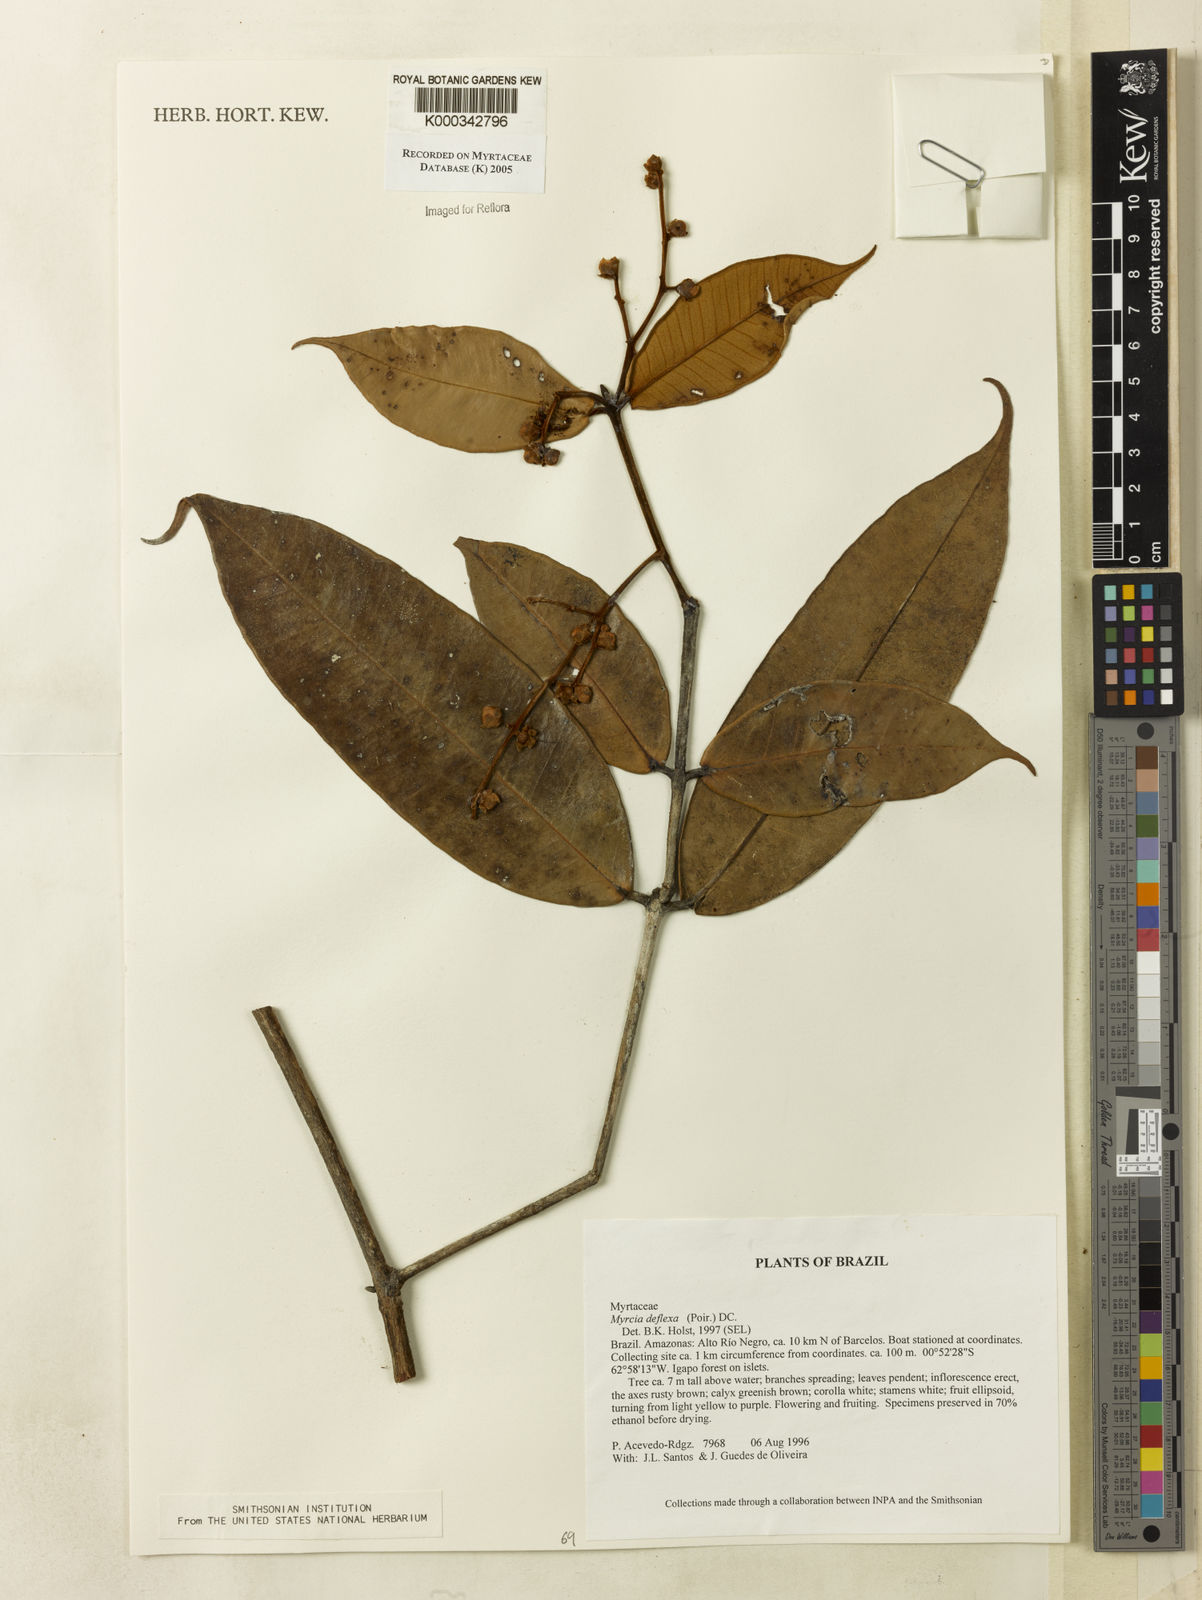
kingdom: Plantae
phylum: Tracheophyta
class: Magnoliopsida
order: Myrtales
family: Myrtaceae
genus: Myrcia
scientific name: Myrcia deflexa
